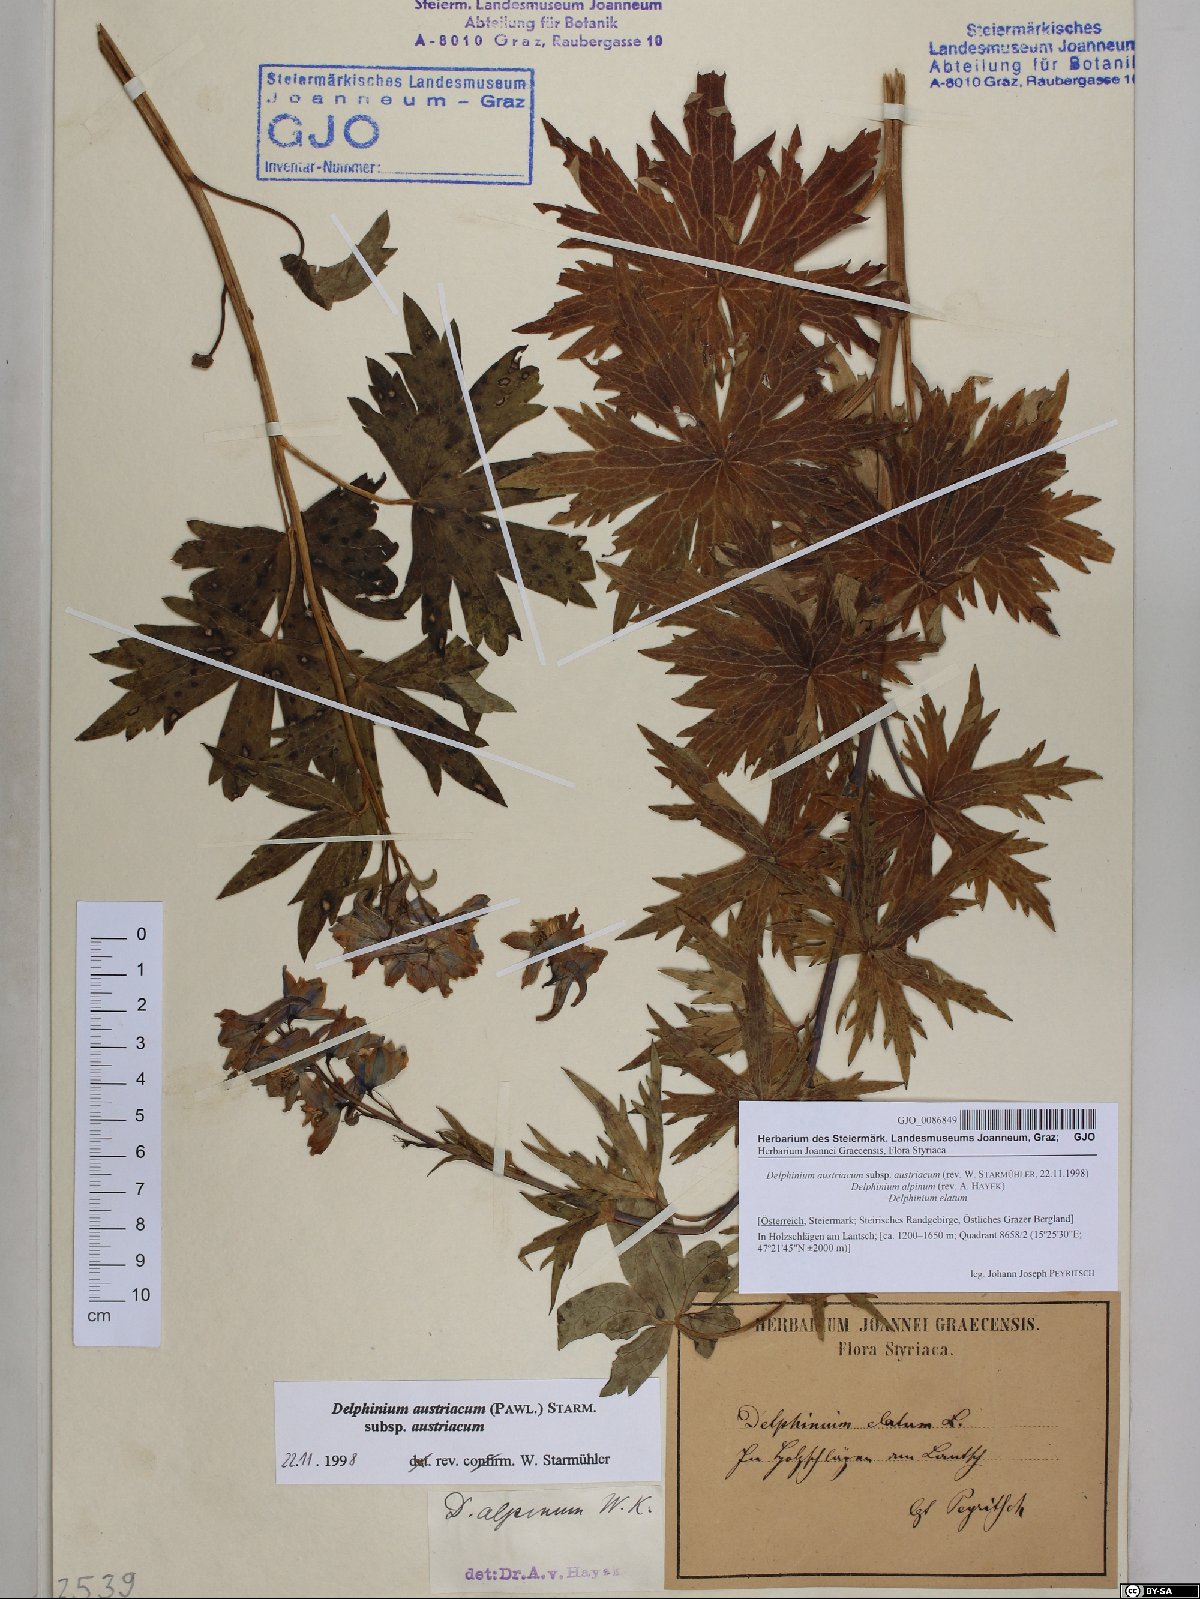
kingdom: Plantae
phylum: Tracheophyta
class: Magnoliopsida
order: Ranunculales
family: Ranunculaceae
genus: Delphinium
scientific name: Delphinium austriacum
